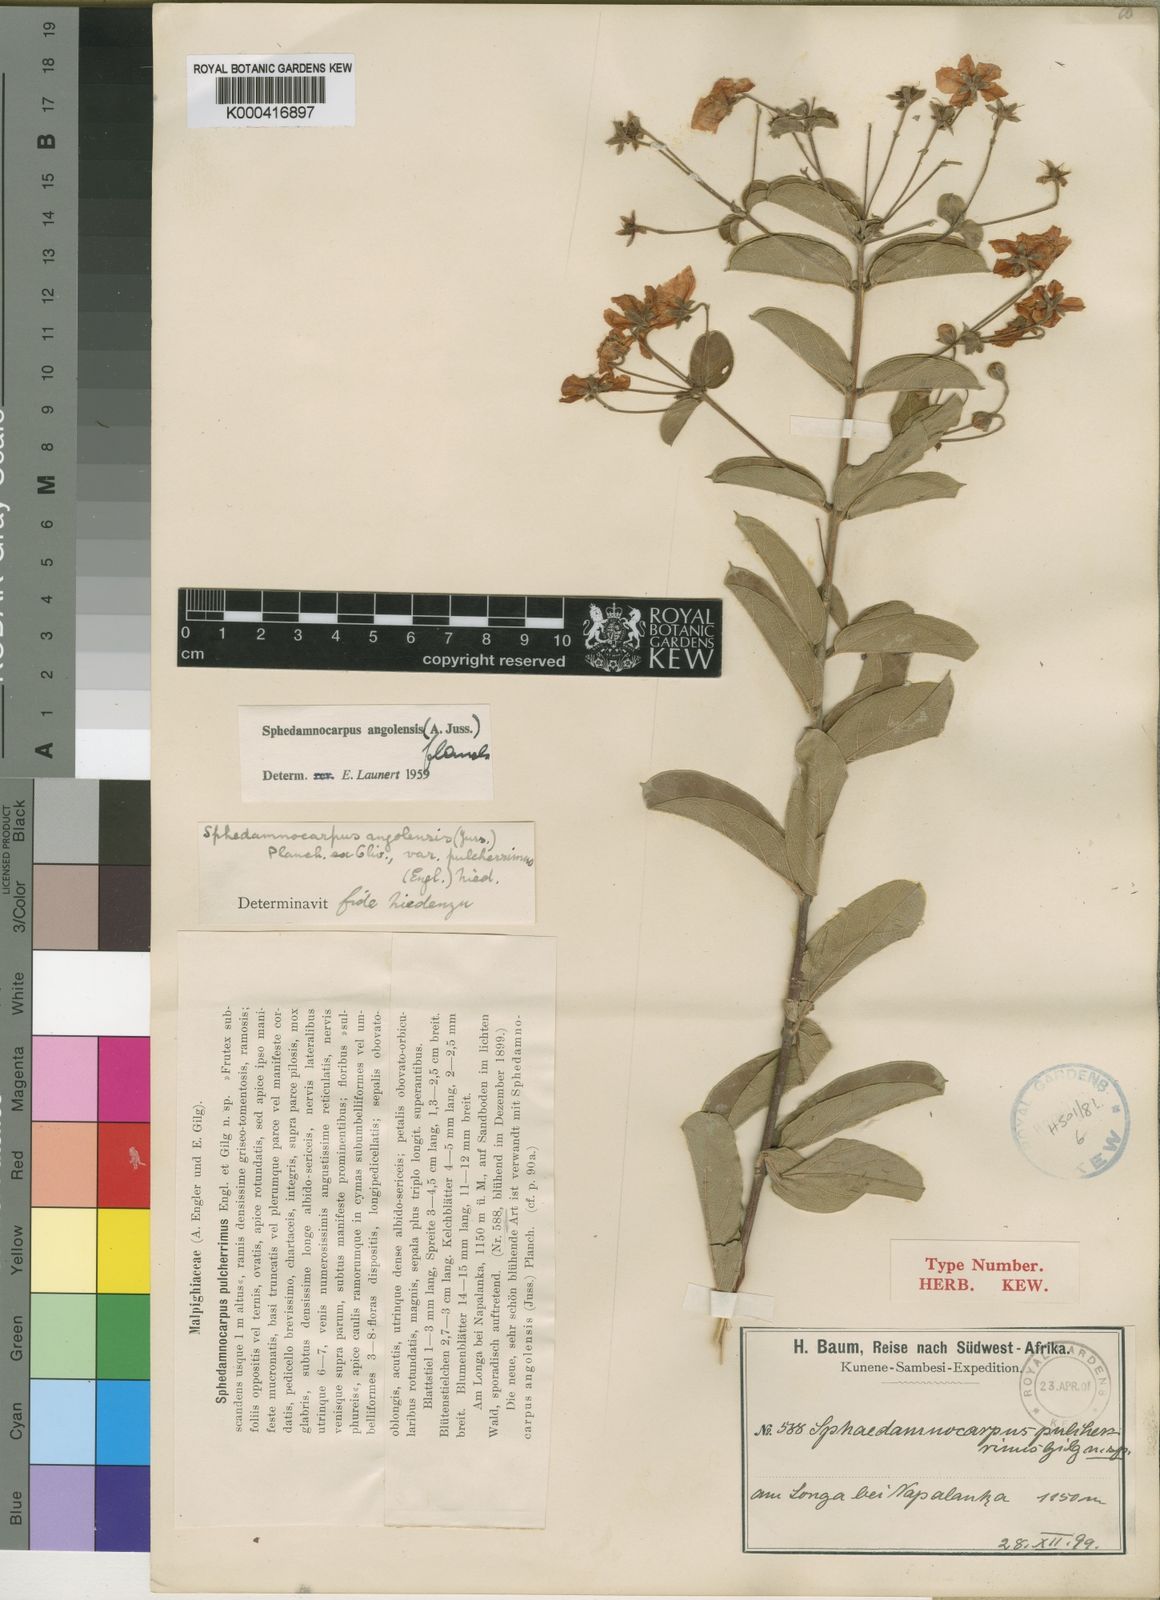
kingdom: Plantae
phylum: Tracheophyta
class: Magnoliopsida
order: Malpighiales
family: Malpighiaceae
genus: Sphedamnocarpus
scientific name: Sphedamnocarpus
